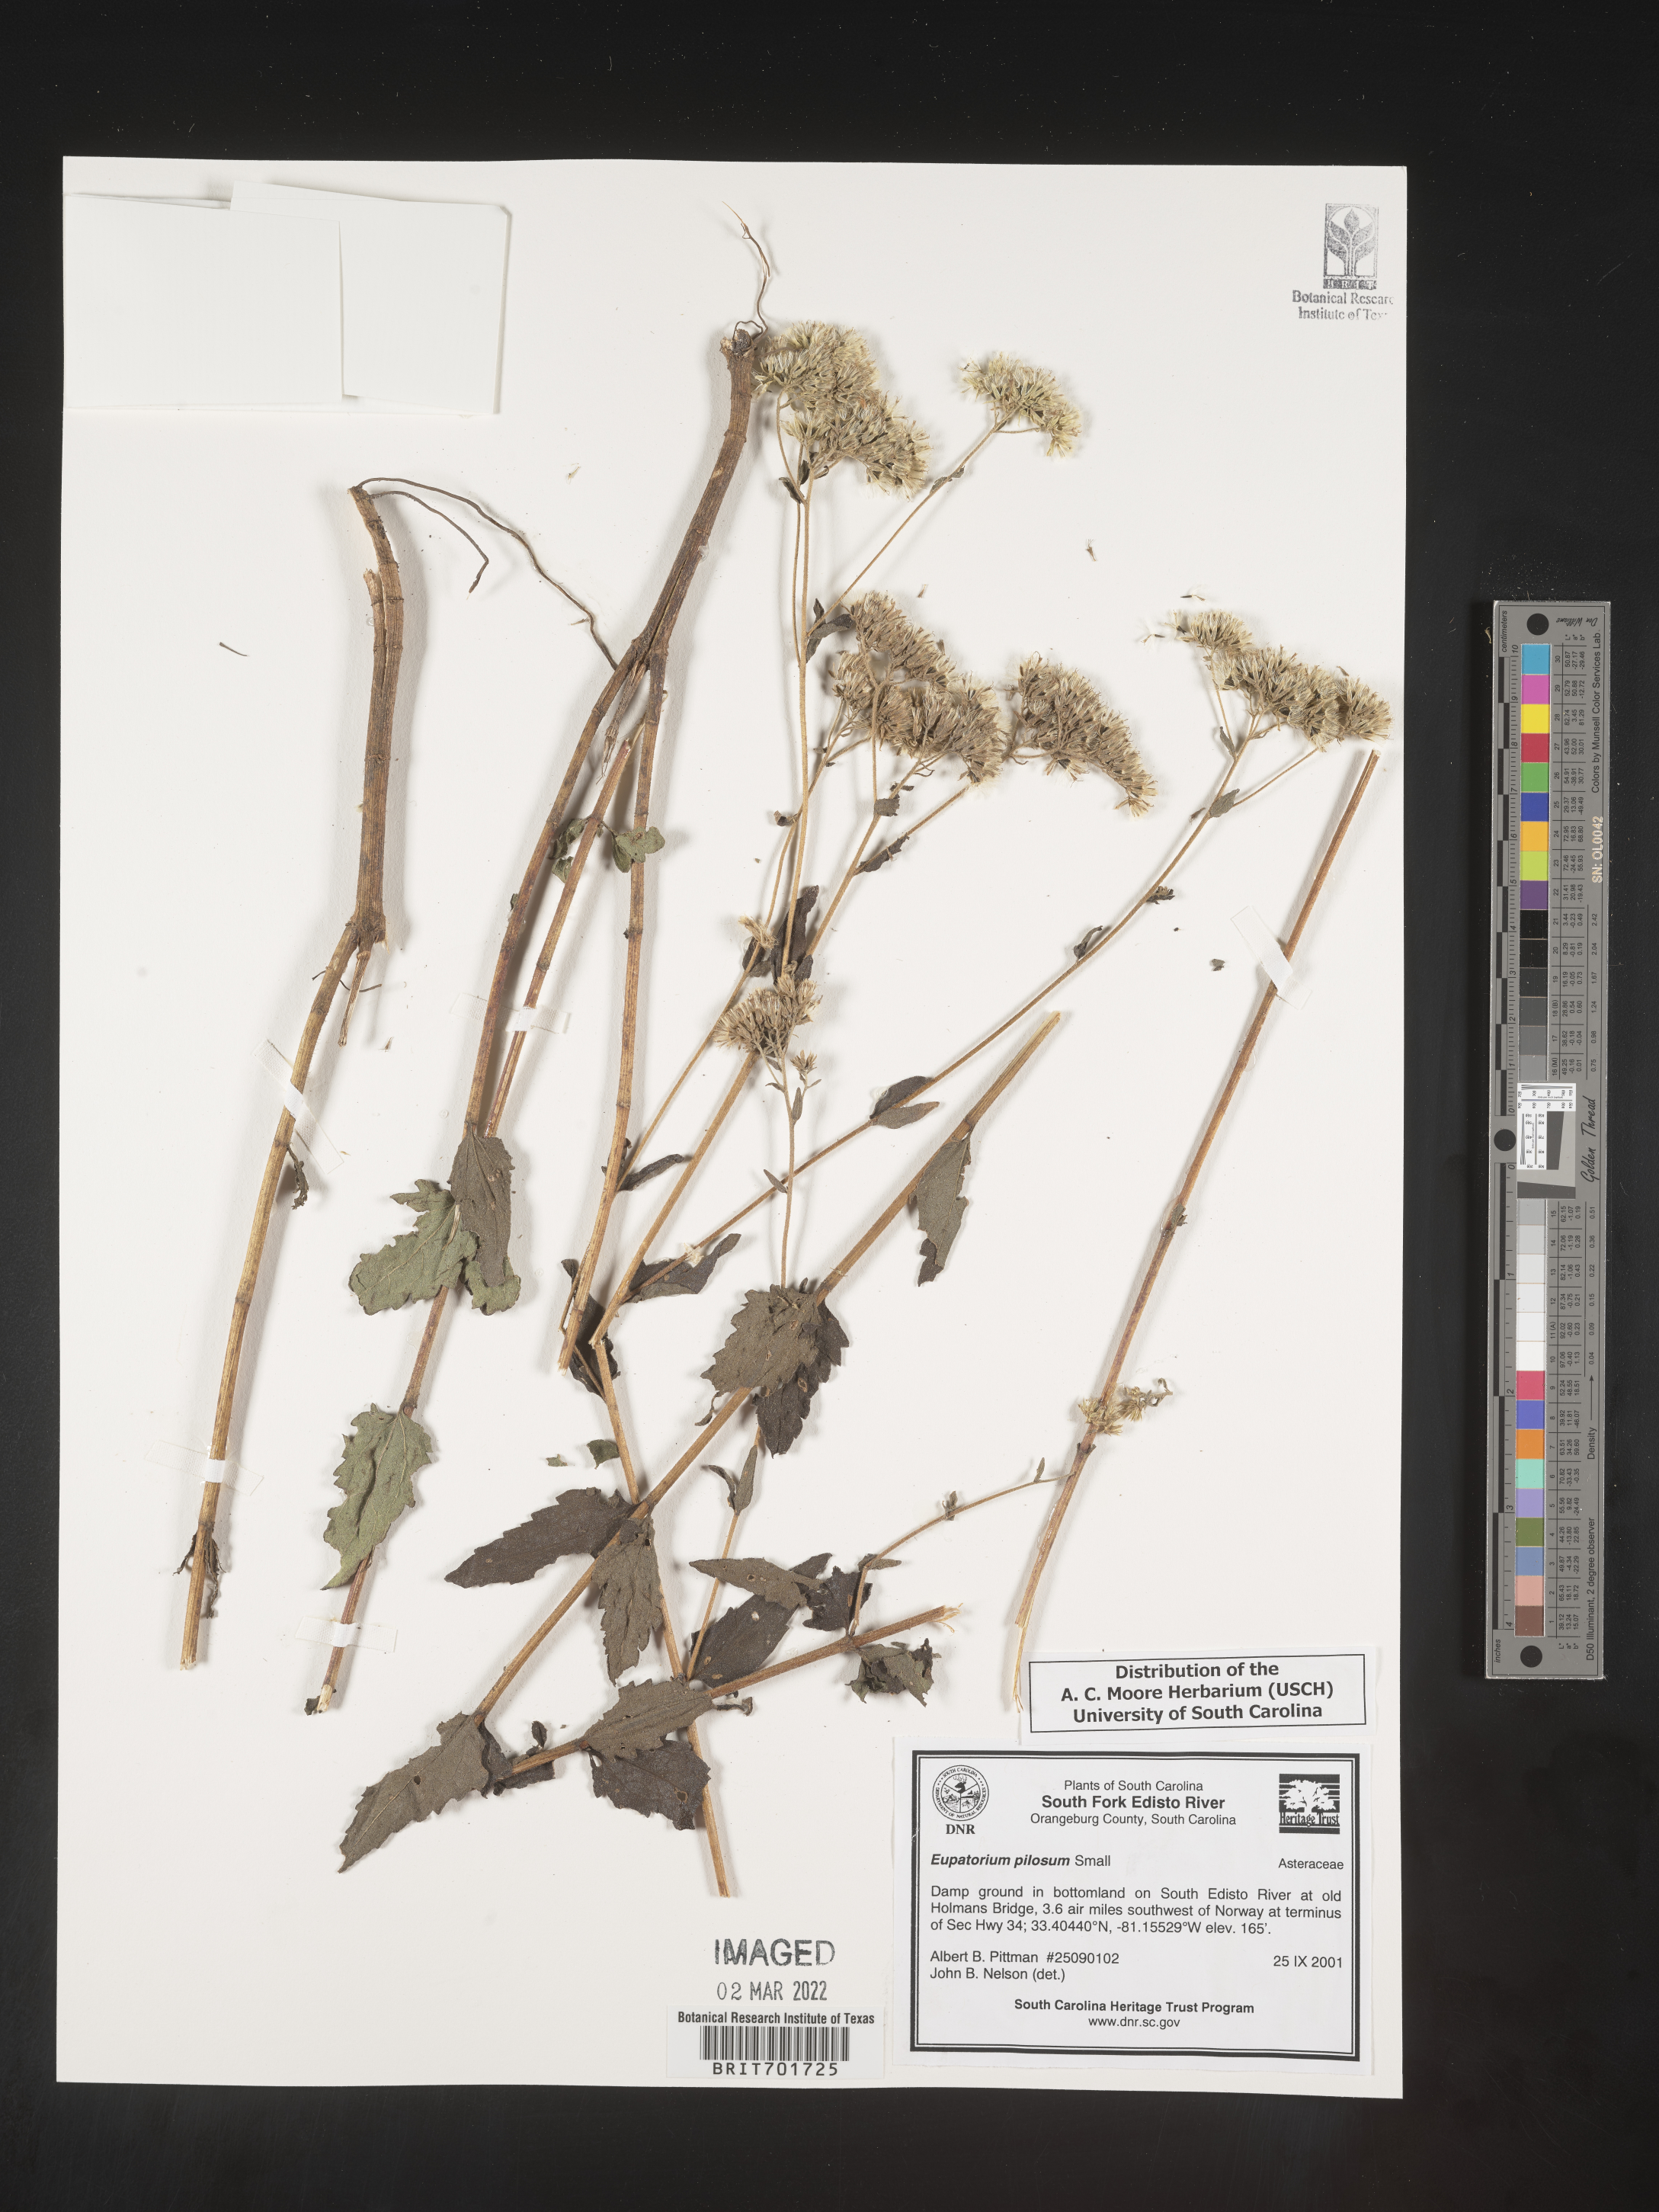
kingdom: Plantae
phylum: Tracheophyta
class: Magnoliopsida
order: Asterales
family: Asteraceae
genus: Eupatorium
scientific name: Eupatorium pilosum
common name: Rough boneset
